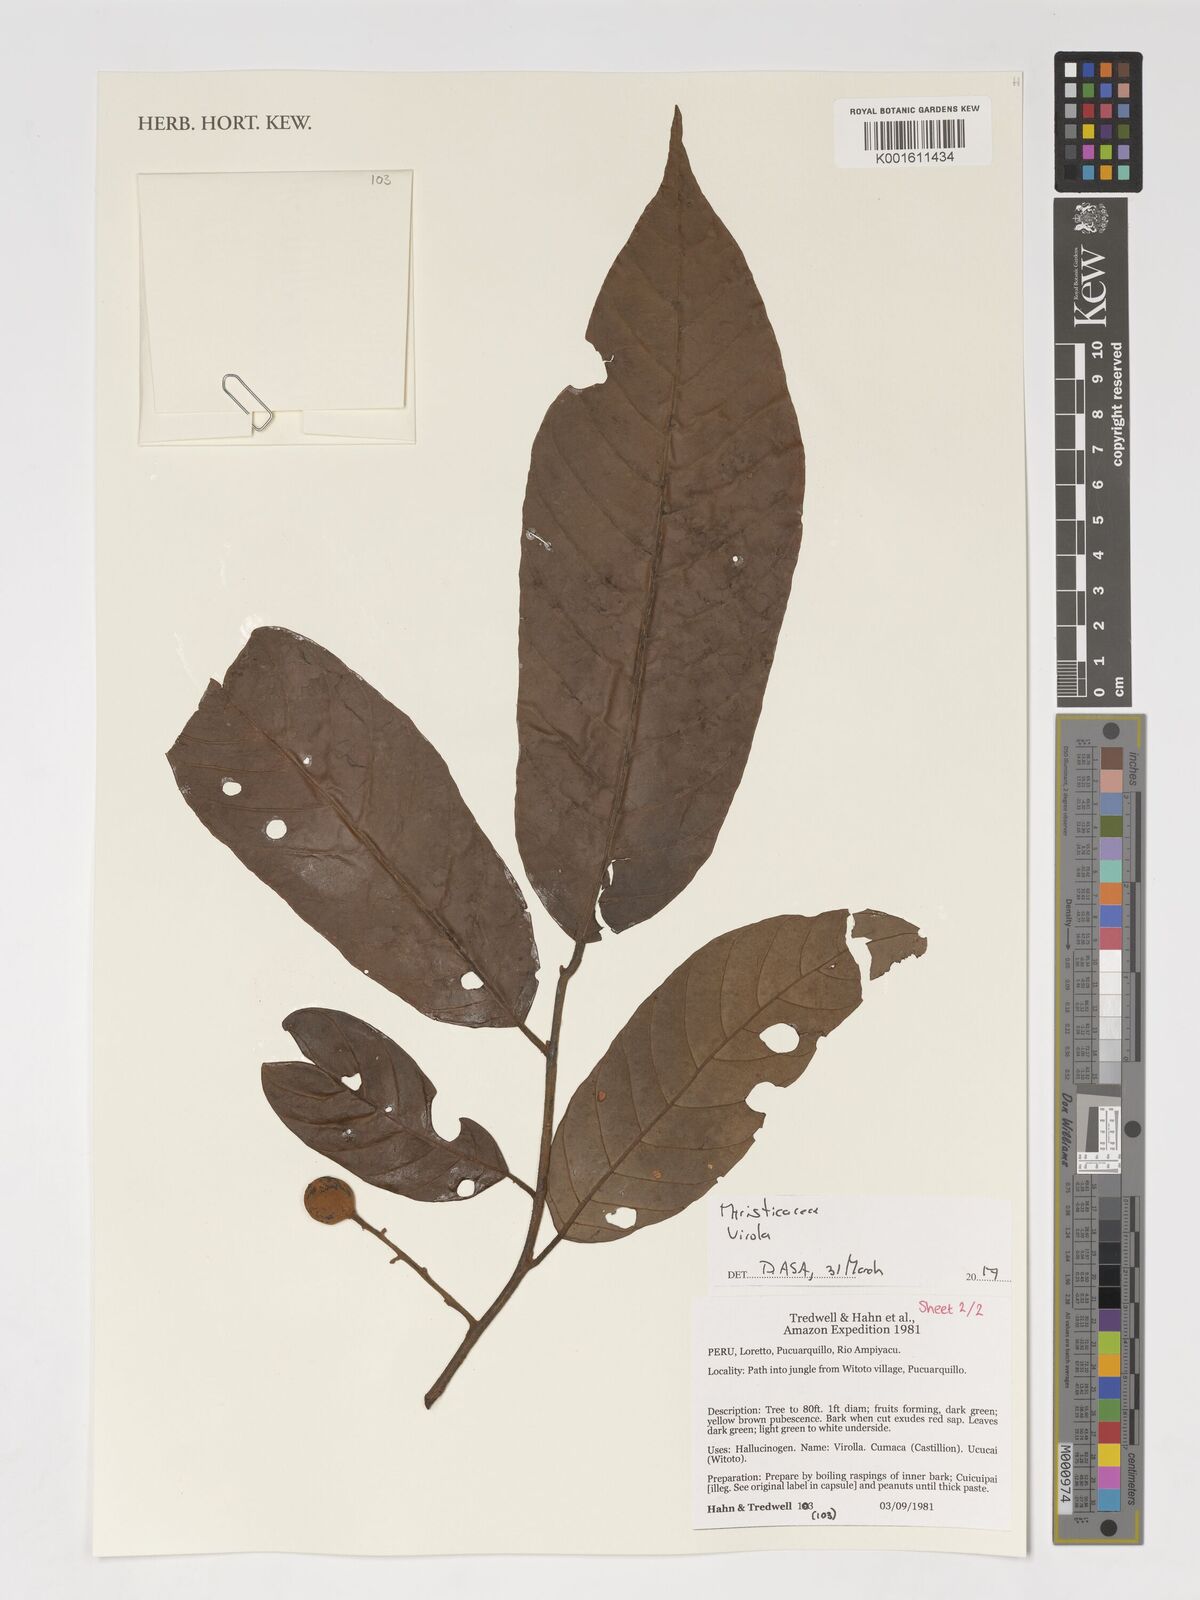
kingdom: Plantae
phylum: Tracheophyta
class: Magnoliopsida
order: Magnoliales
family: Myristicaceae
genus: Virola
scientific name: Virola
